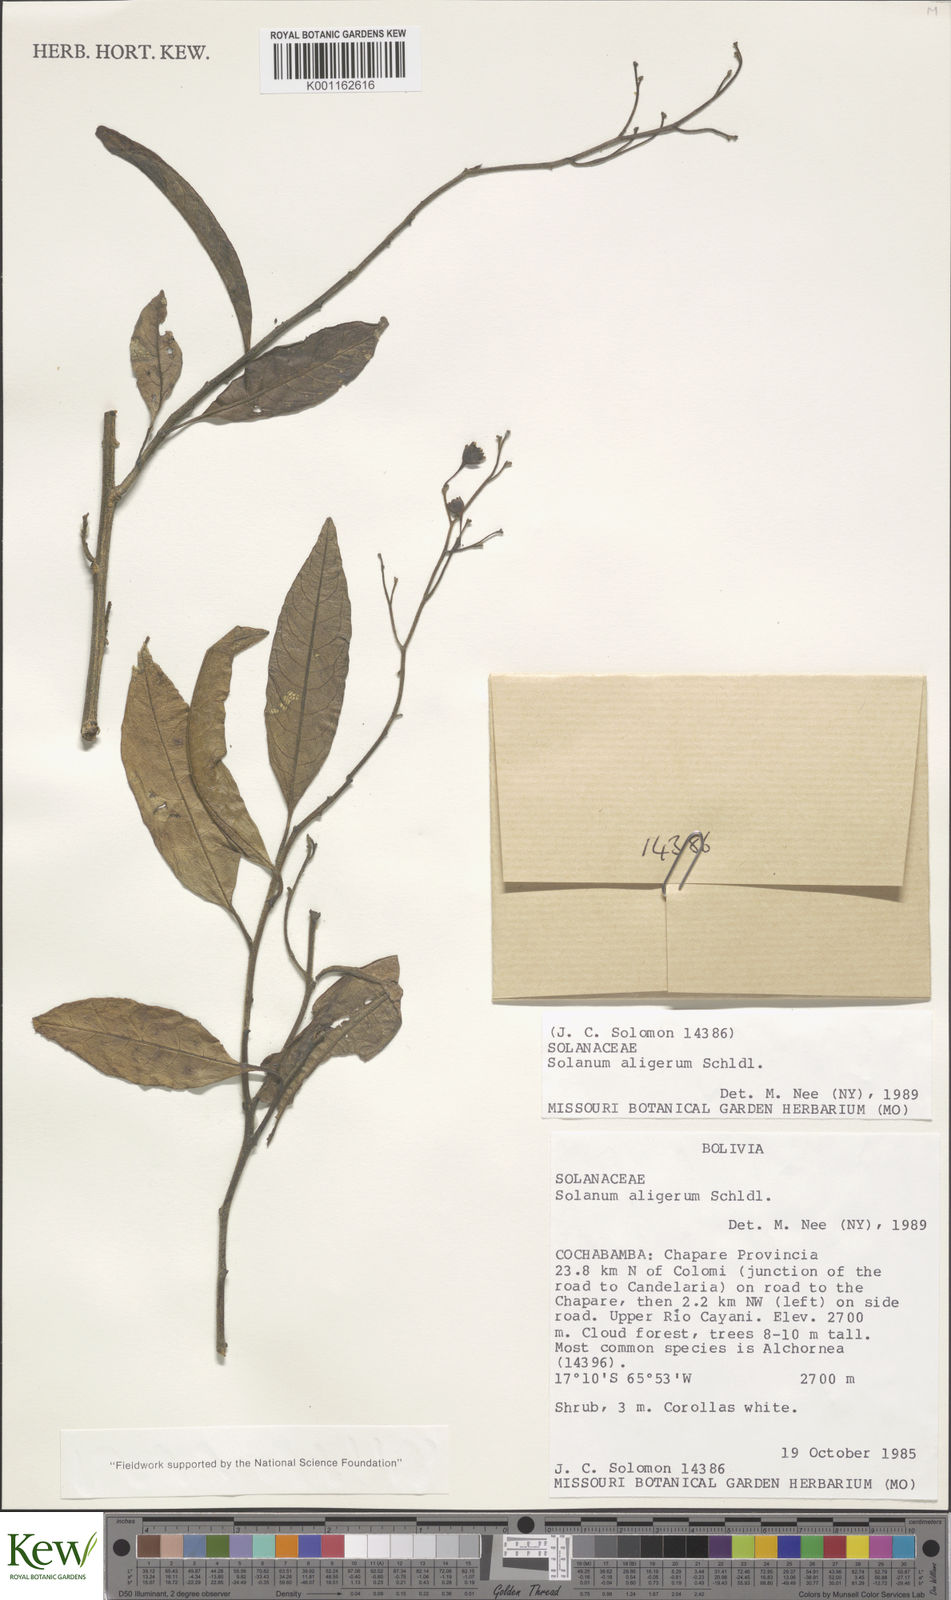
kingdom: Plantae
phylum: Tracheophyta
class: Magnoliopsida
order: Solanales
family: Solanaceae
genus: Solanum
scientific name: Solanum aligerum
